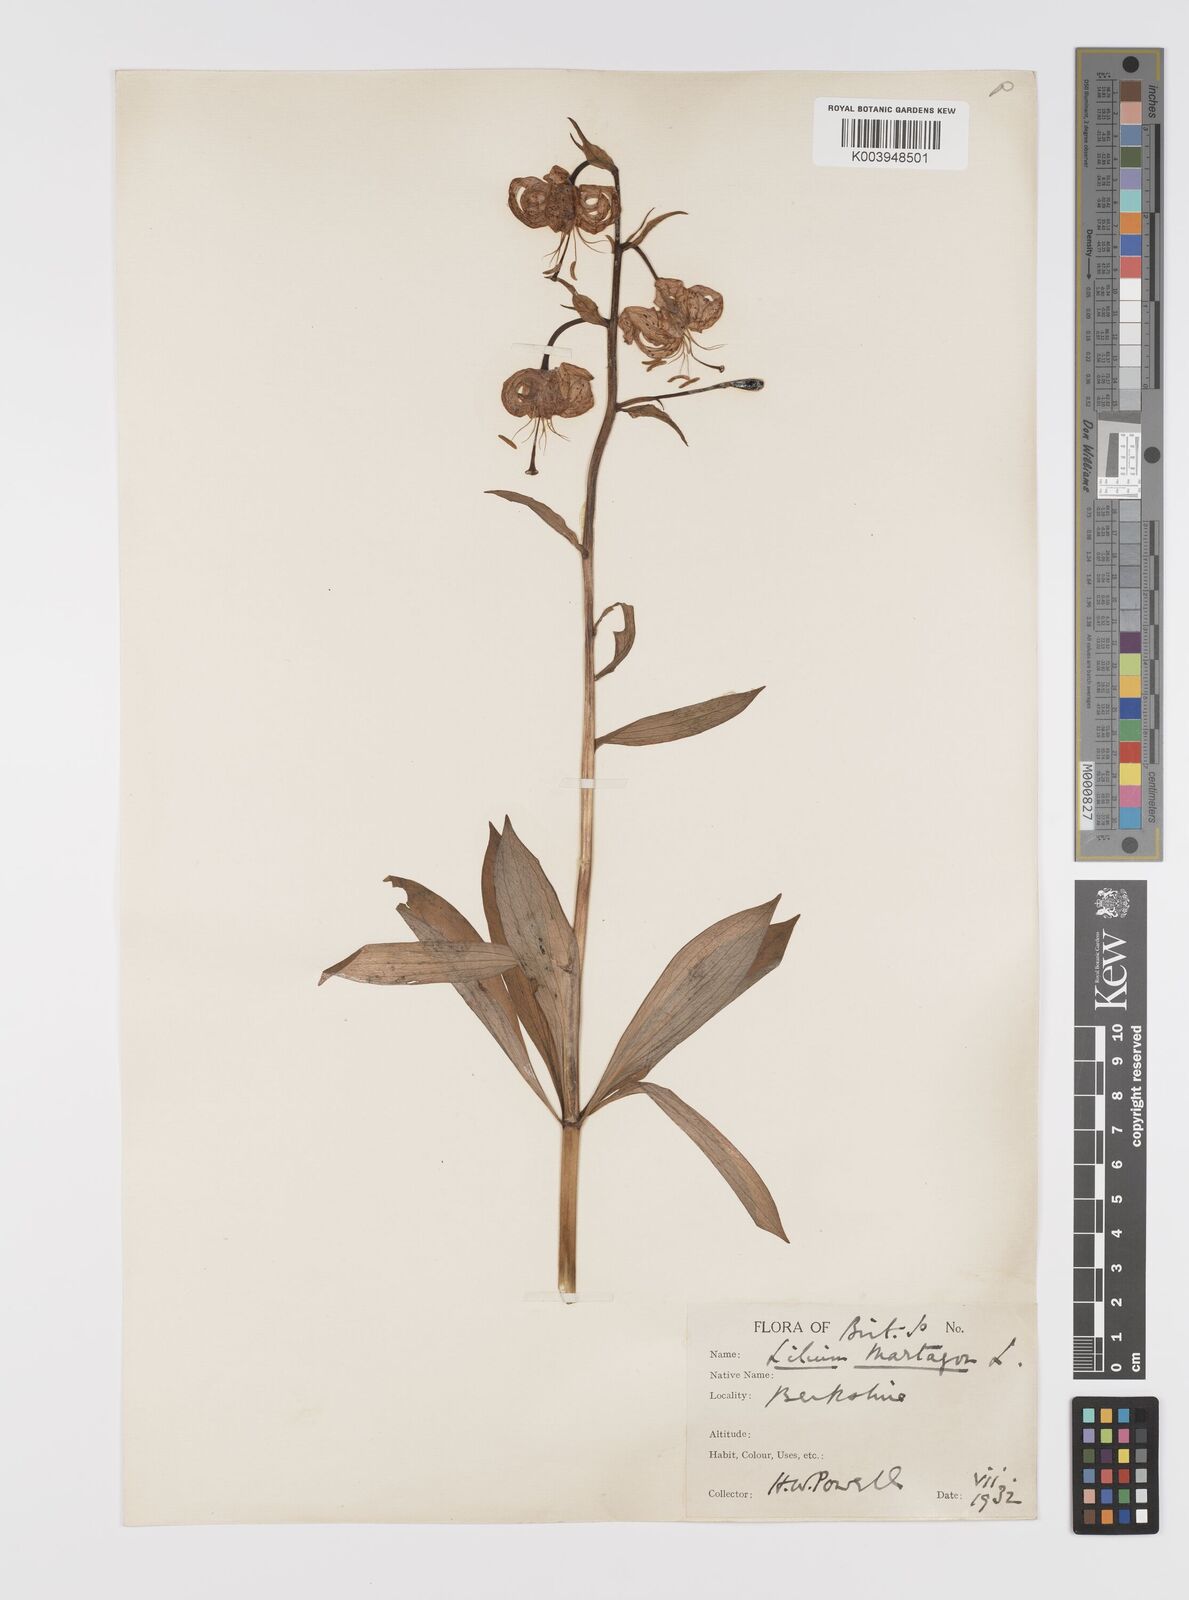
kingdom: Plantae
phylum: Tracheophyta
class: Liliopsida
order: Liliales
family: Liliaceae
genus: Lilium
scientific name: Lilium martagon
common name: Martagon lily
